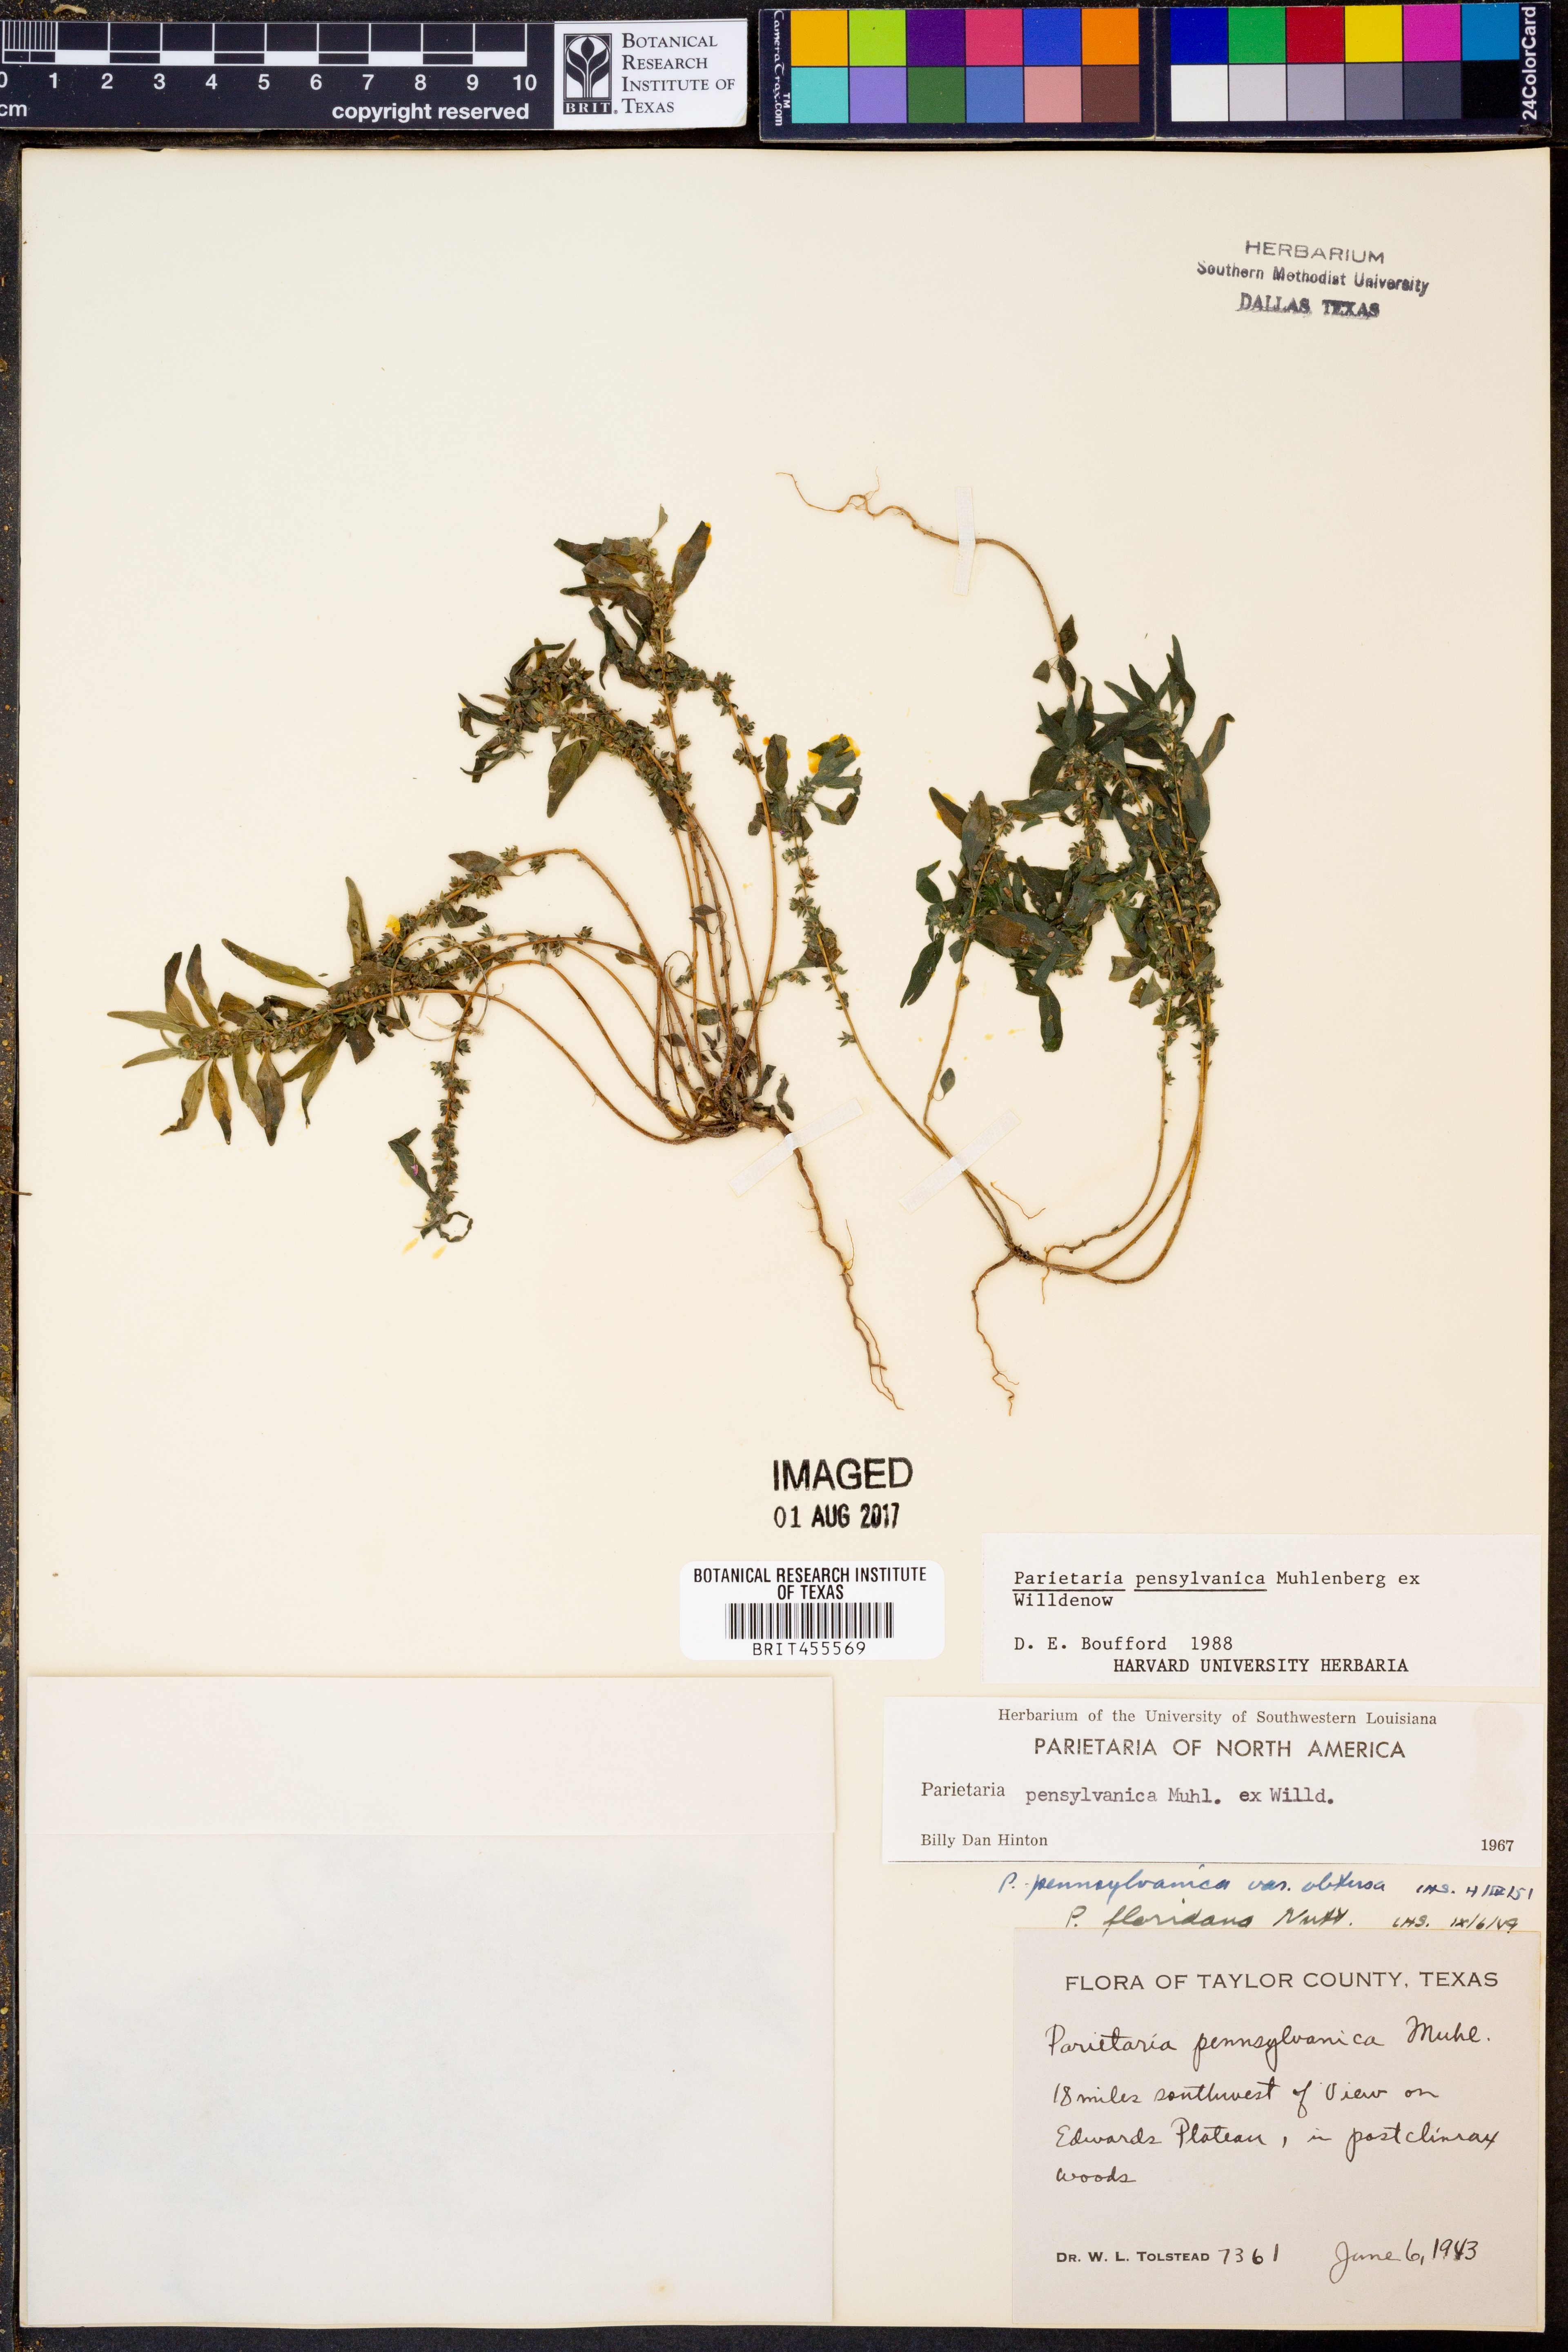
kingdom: Plantae
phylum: Tracheophyta
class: Magnoliopsida
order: Rosales
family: Urticaceae
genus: Parietaria
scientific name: Parietaria pensylvanica
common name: Pennsylvania pellitory
